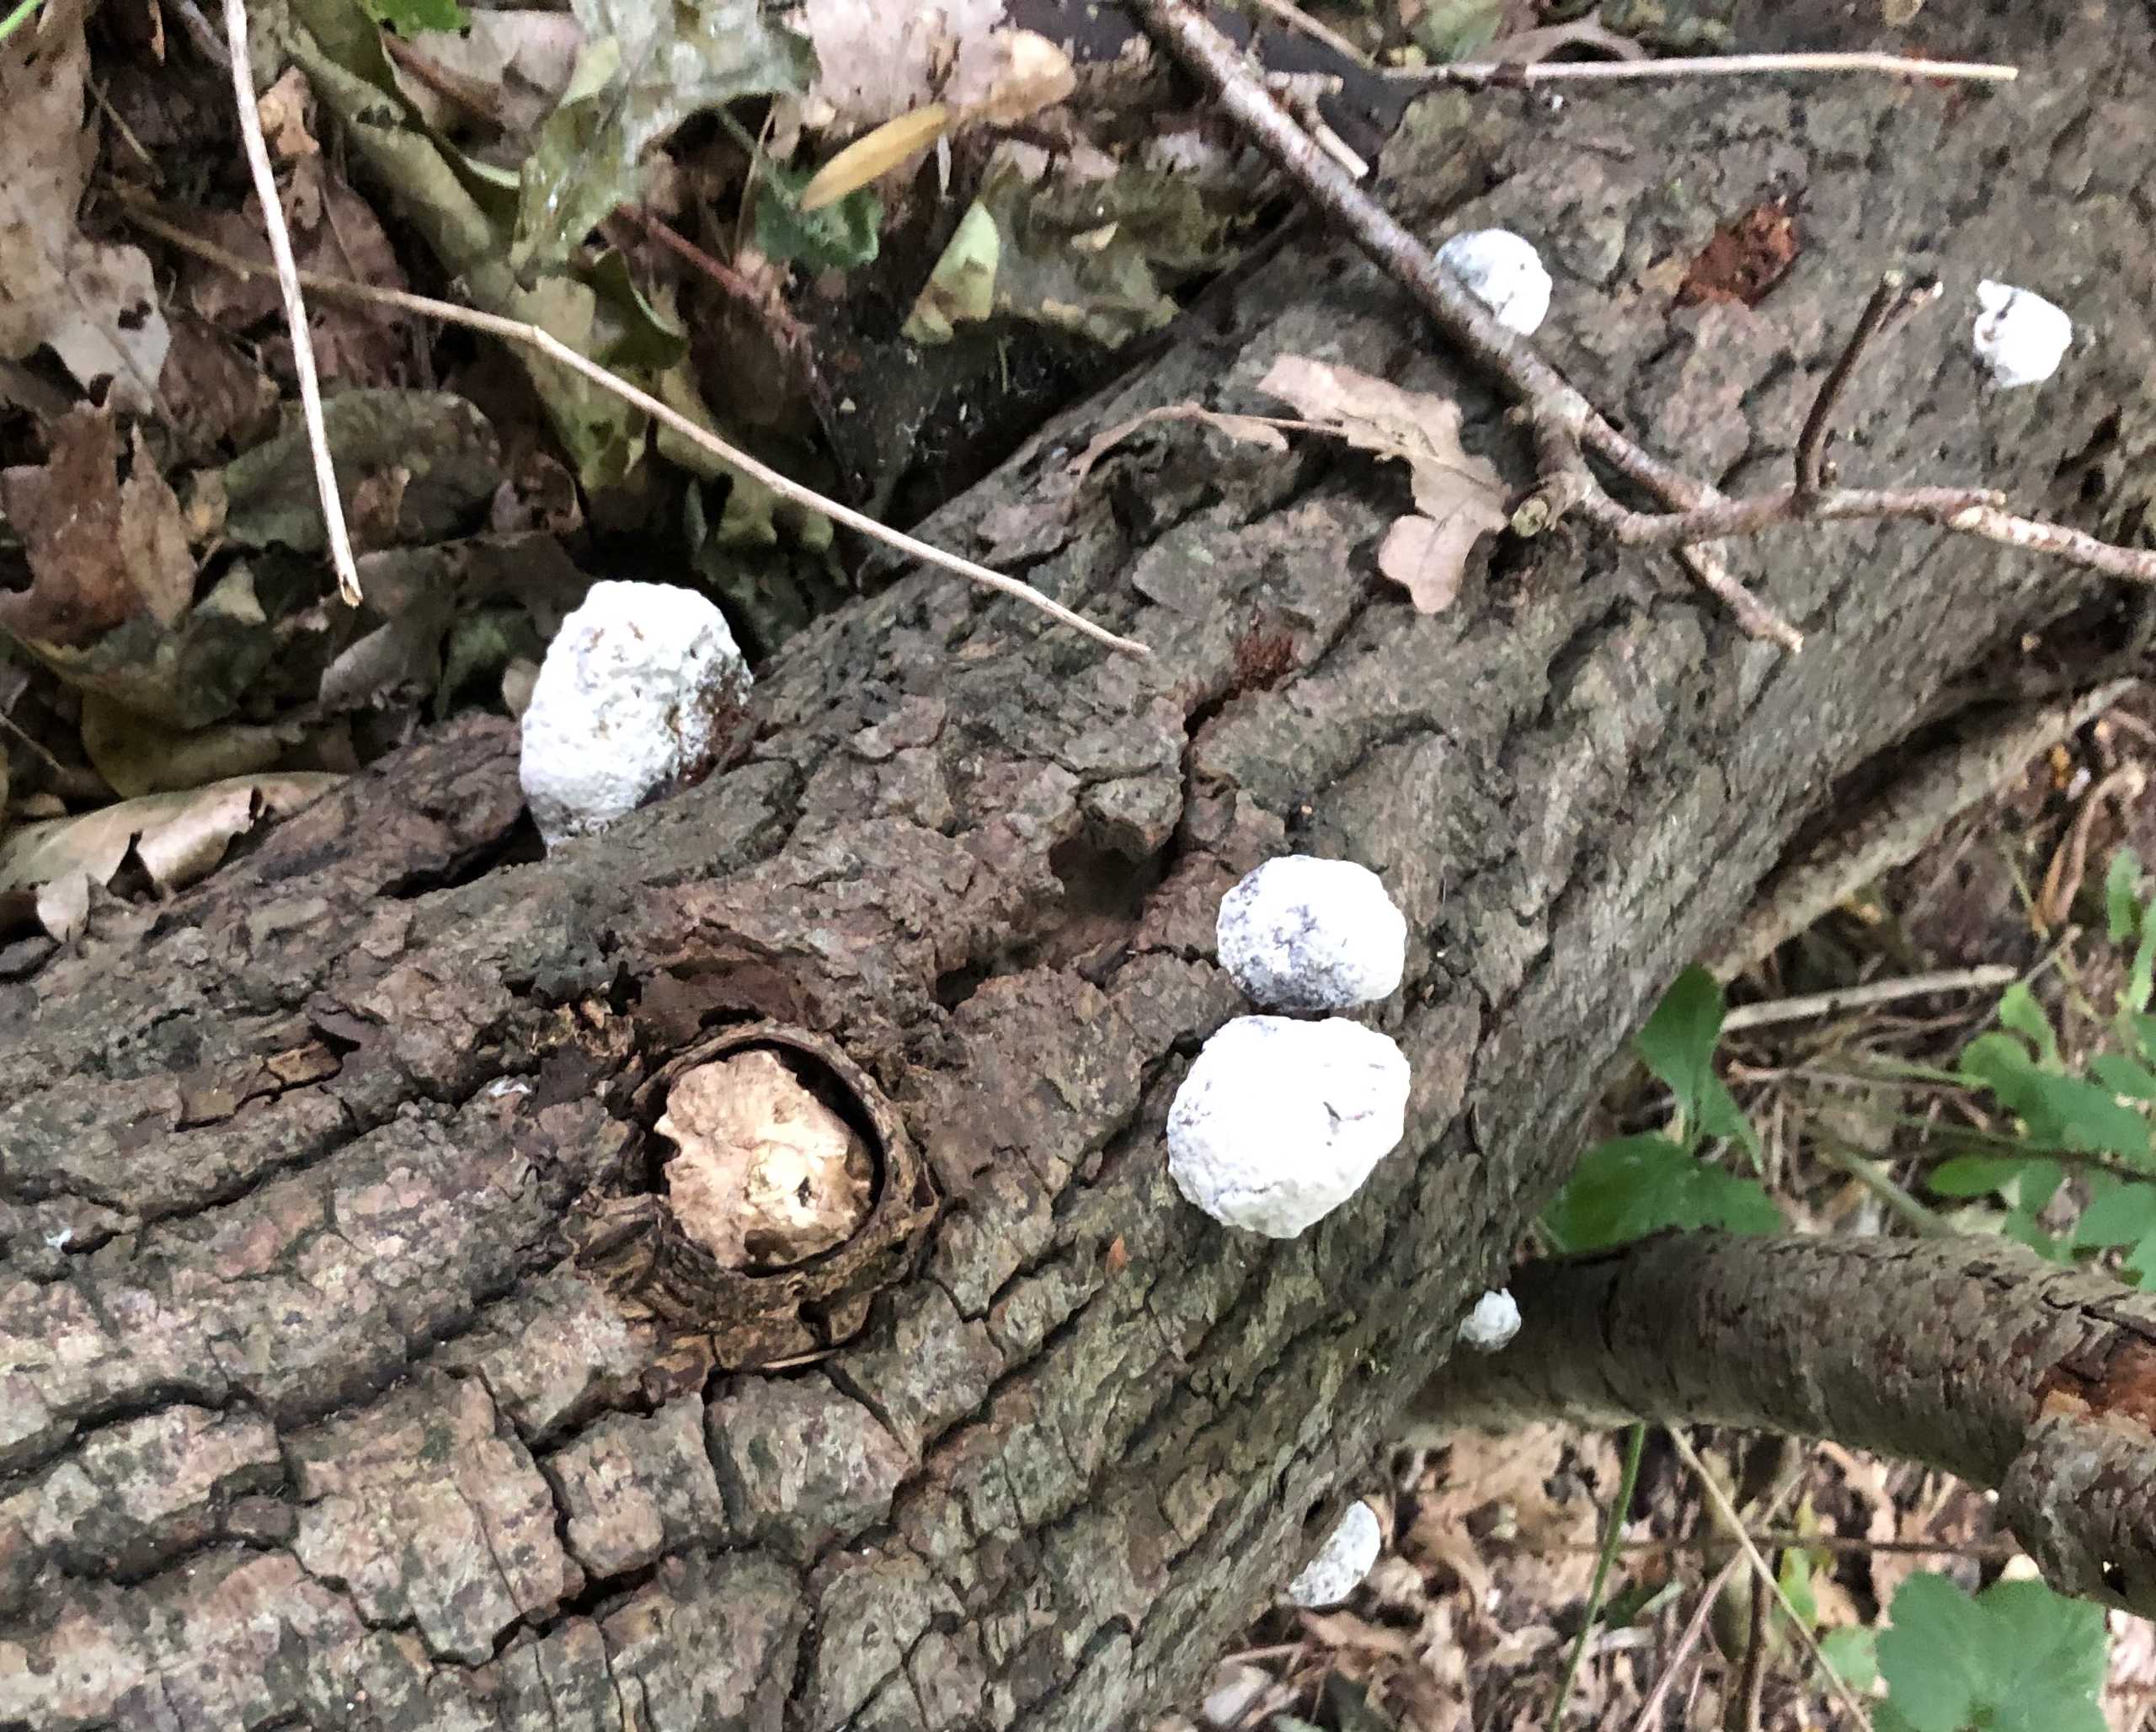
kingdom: Fungi
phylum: Basidiomycota
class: Agaricomycetes
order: Polyporales
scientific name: Polyporales
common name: poresvampordenen
